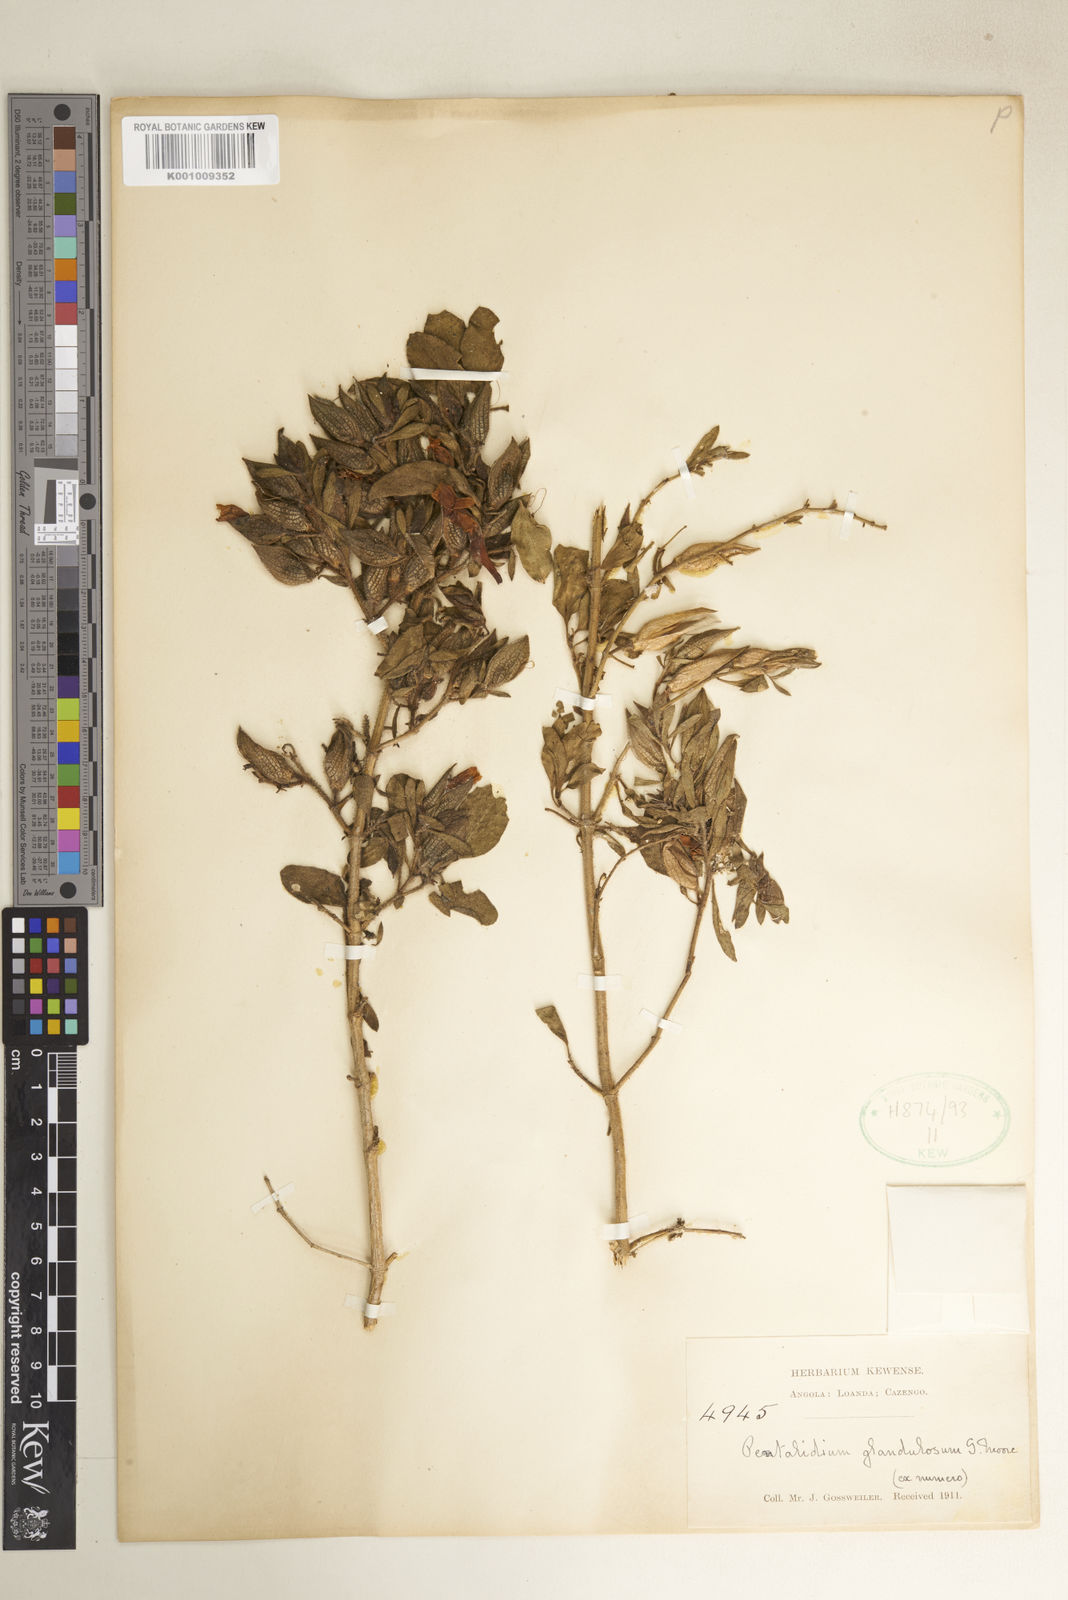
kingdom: Plantae
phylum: Tracheophyta
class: Magnoliopsida
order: Lamiales
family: Acanthaceae
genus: Petalidium
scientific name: Petalidium glandulosum
